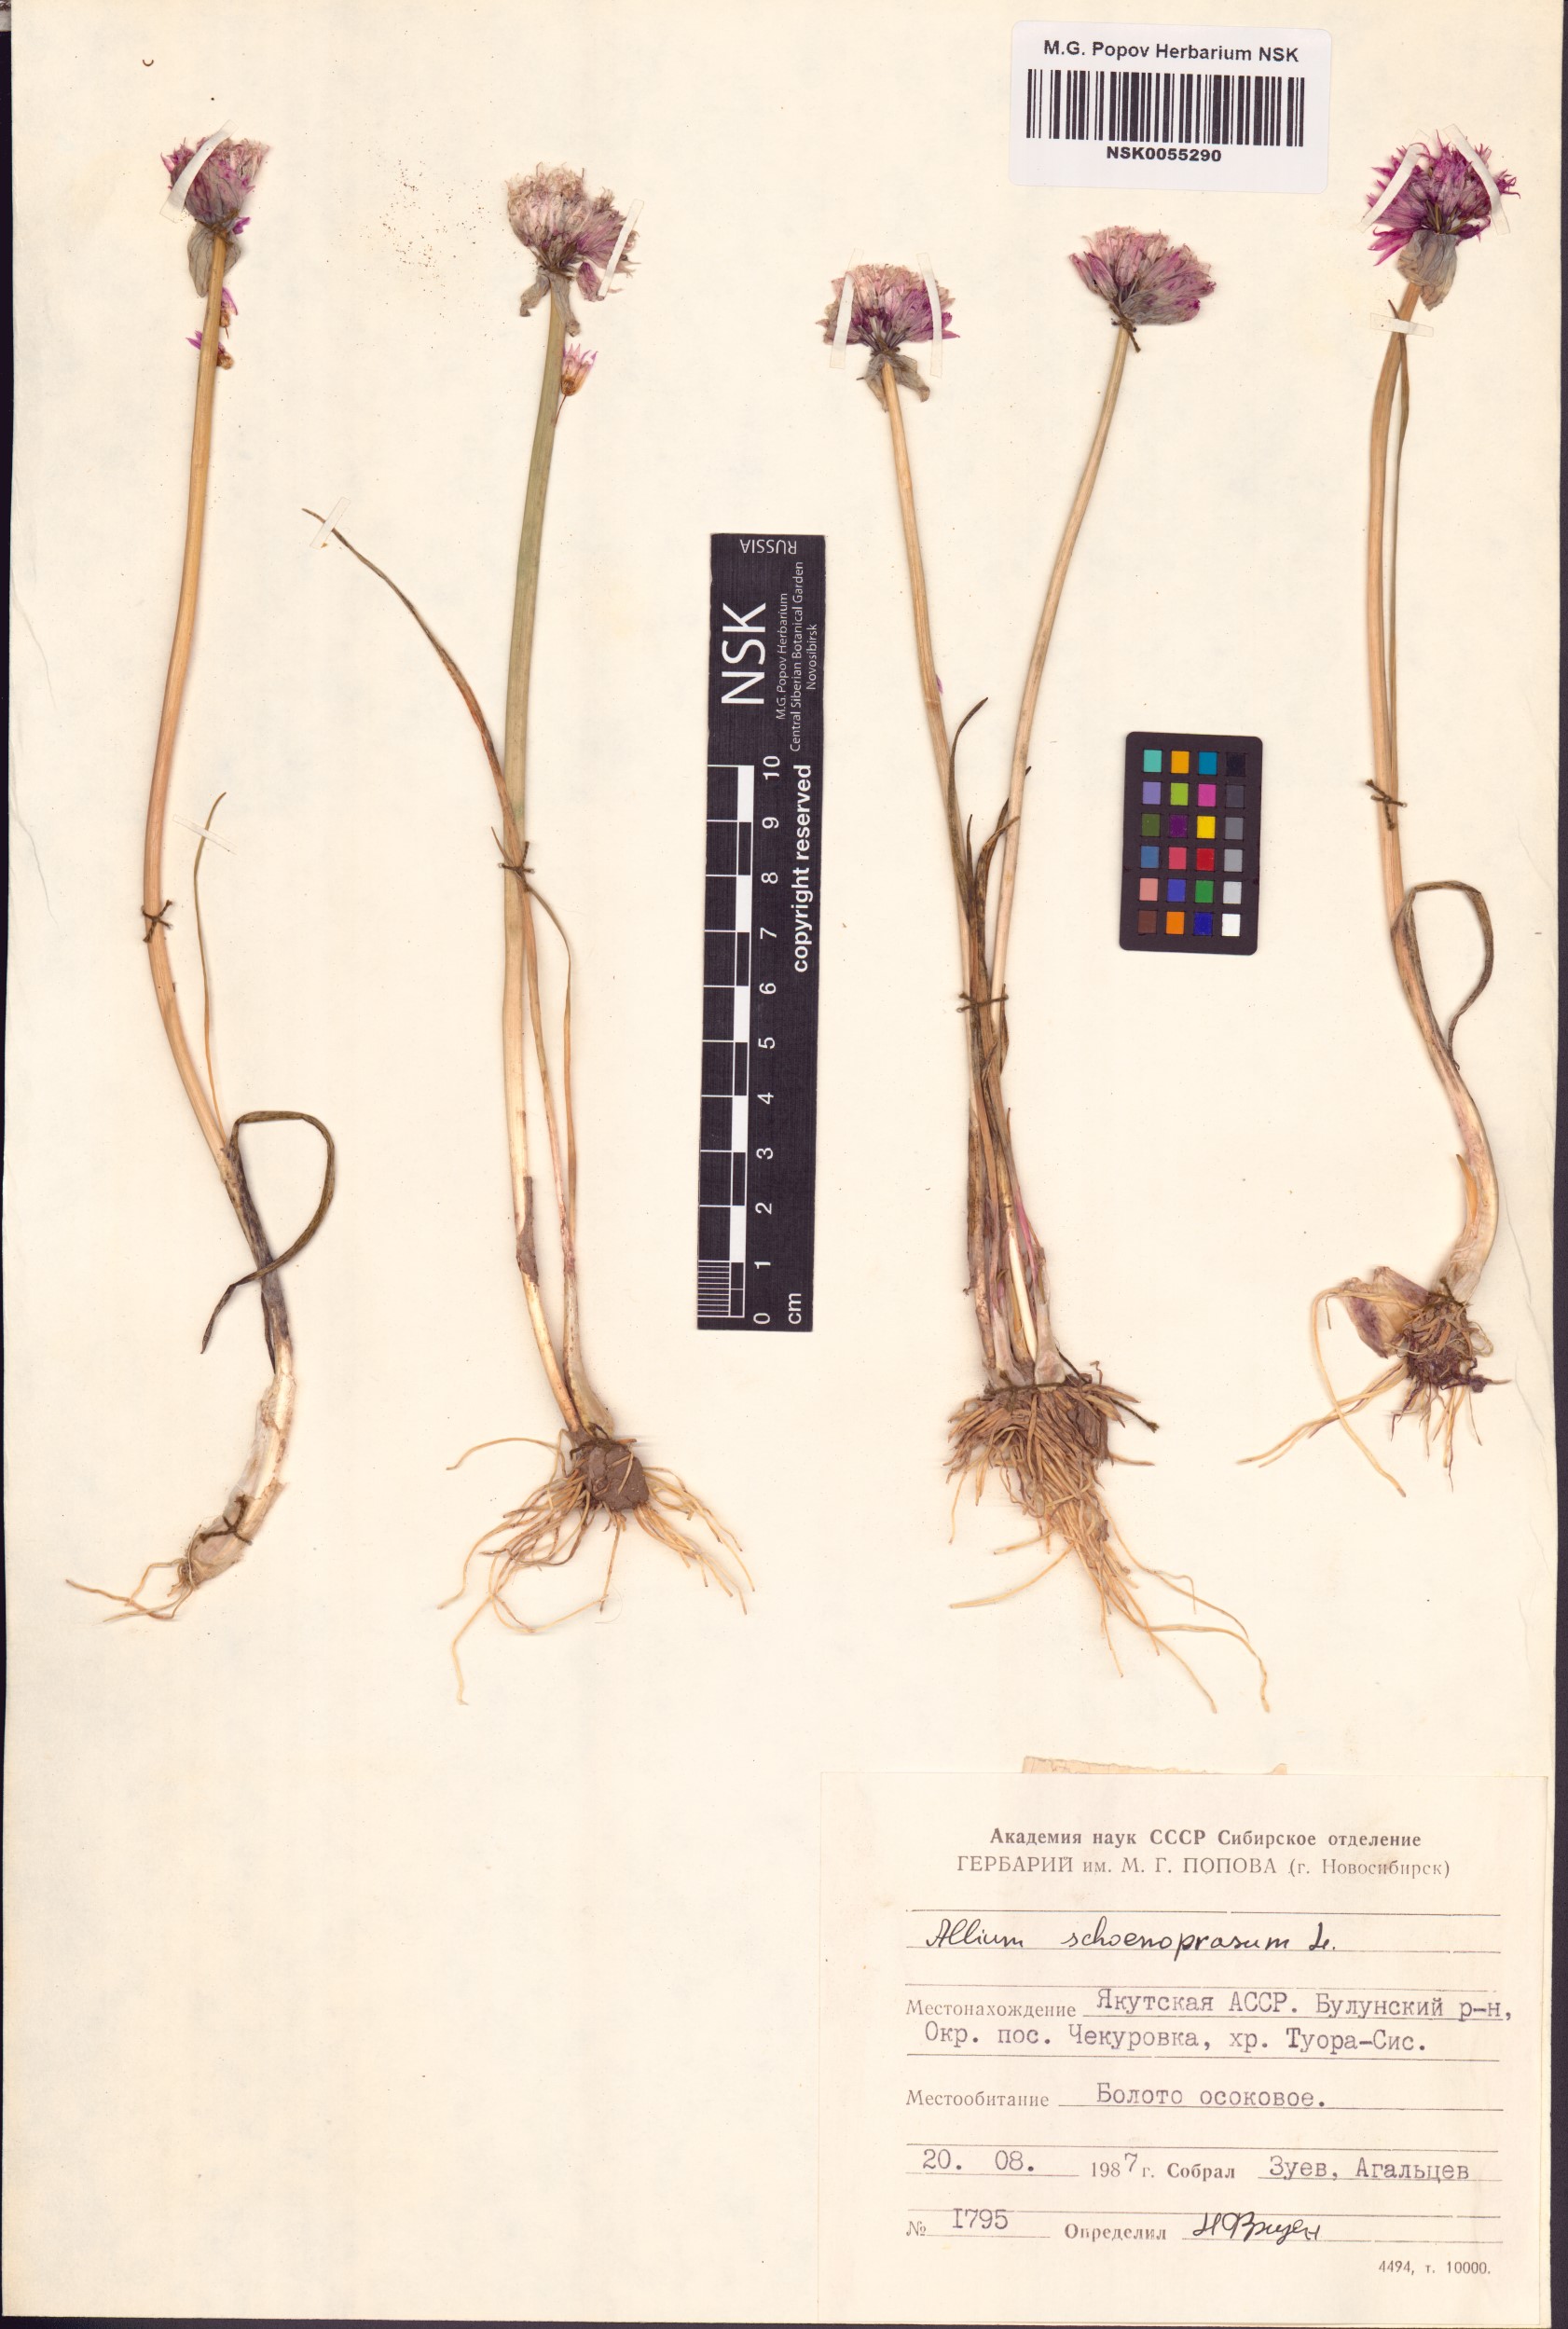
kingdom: Plantae
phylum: Tracheophyta
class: Liliopsida
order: Asparagales
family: Amaryllidaceae
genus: Allium
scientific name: Allium schoenoprasum
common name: Chives
